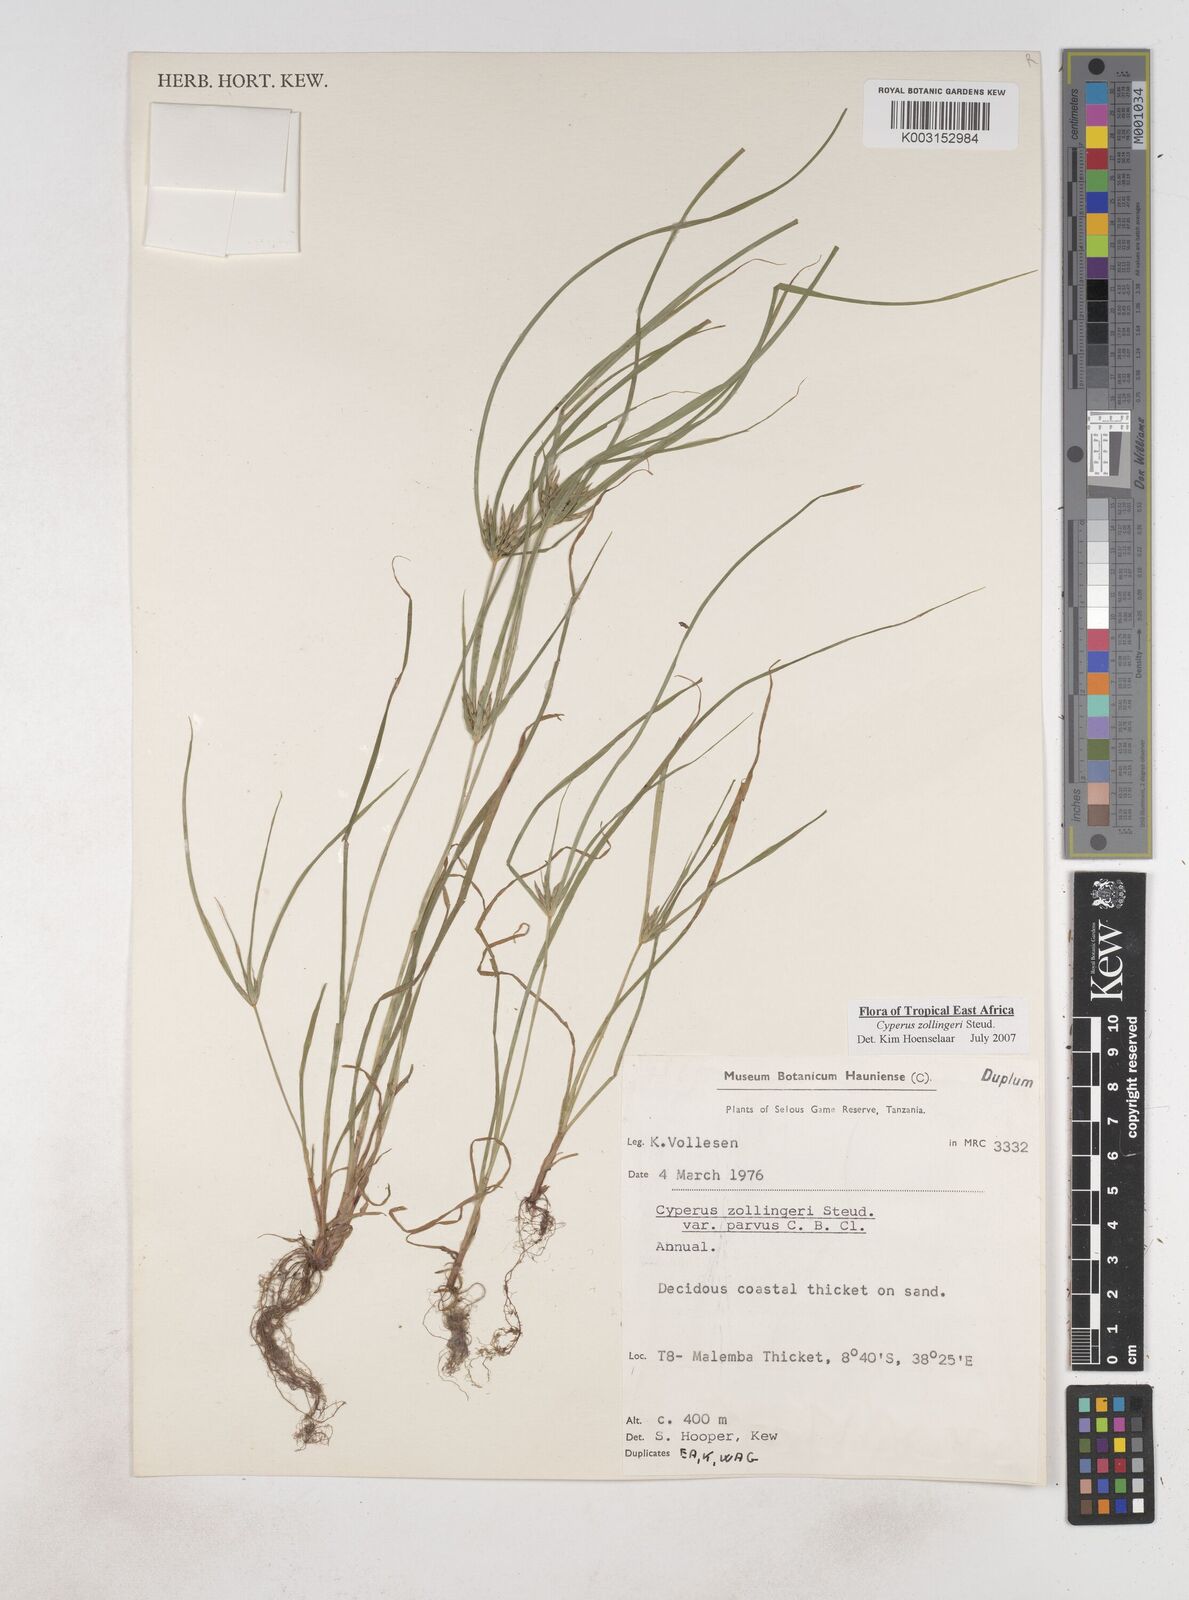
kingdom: Plantae
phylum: Tracheophyta
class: Liliopsida
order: Poales
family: Cyperaceae
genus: Cyperus
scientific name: Cyperus zollingeri
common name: Roadside flatsedge
